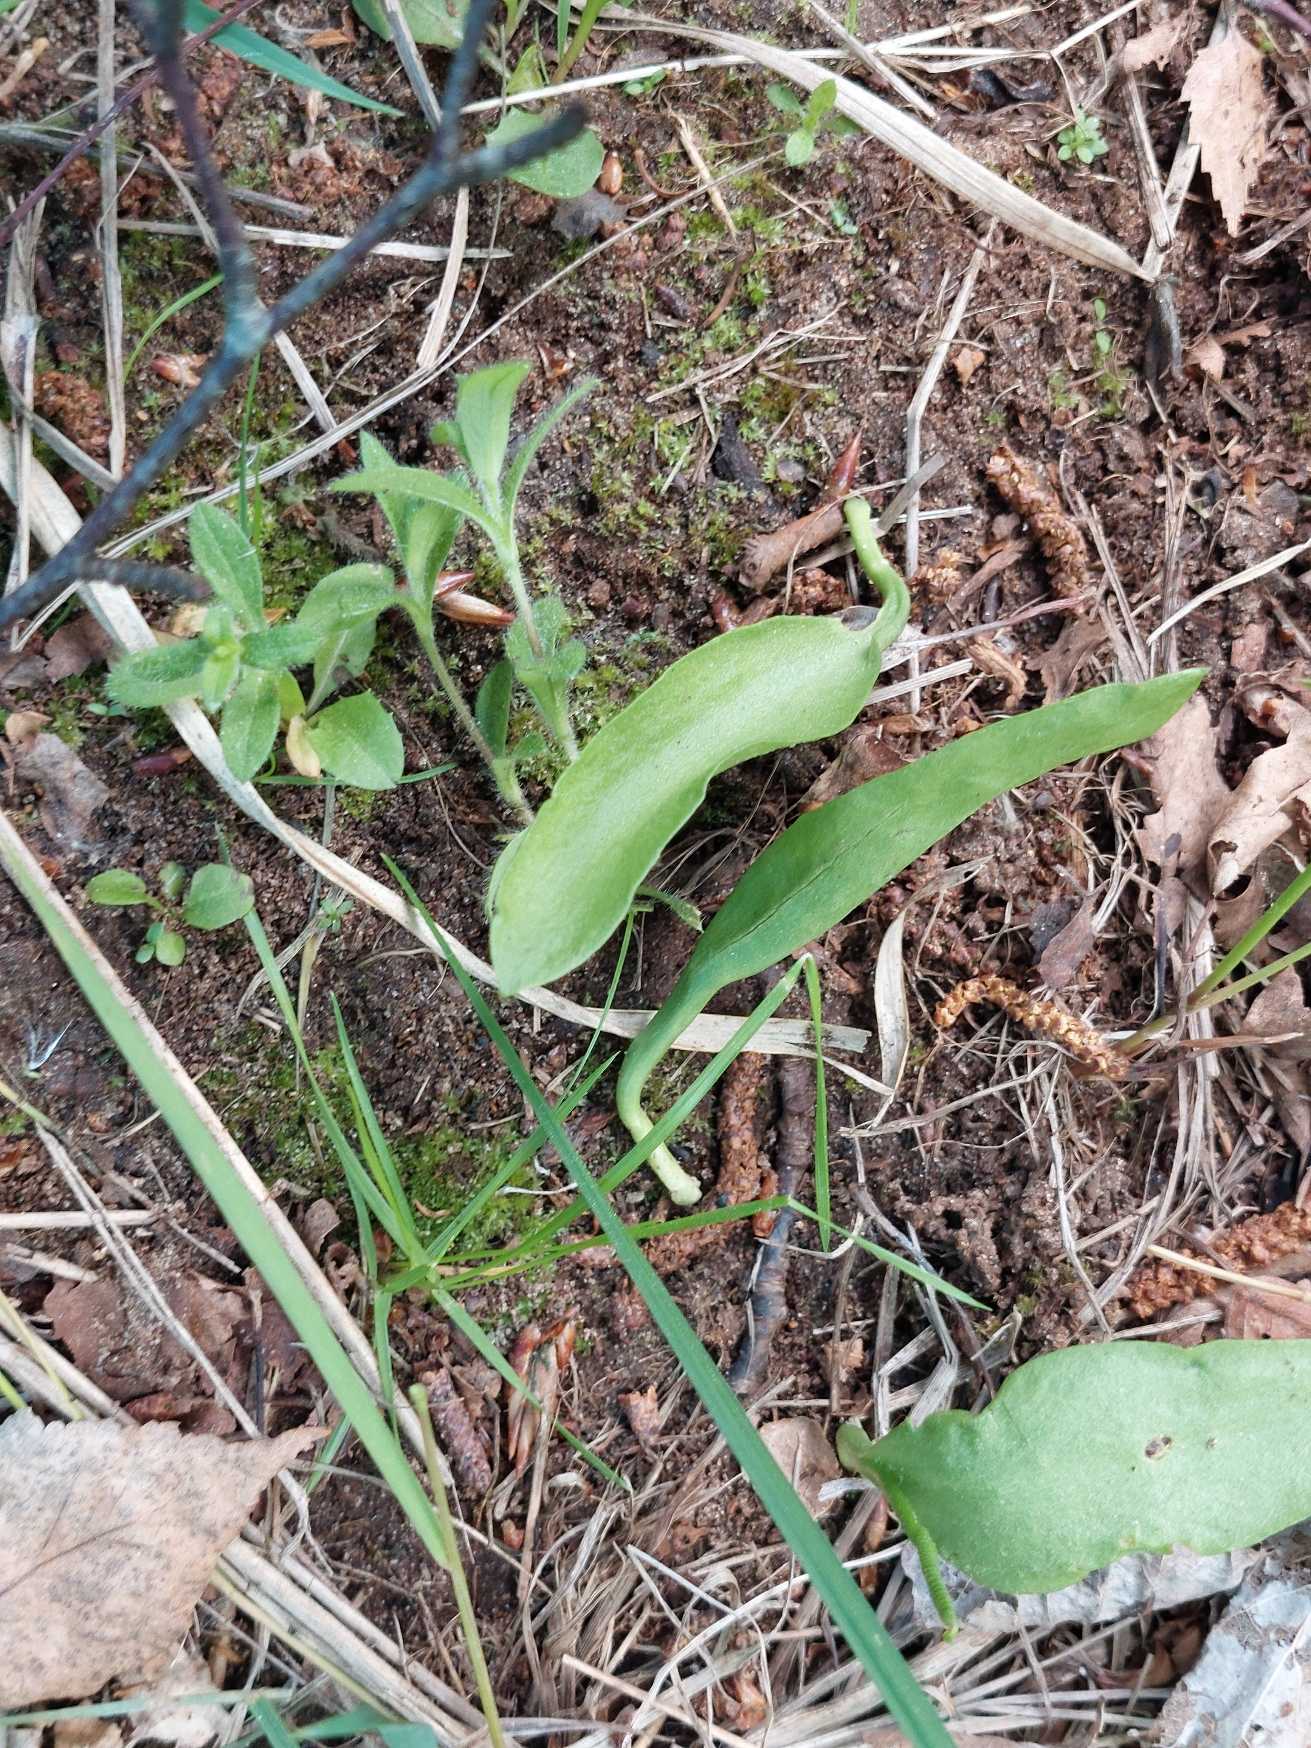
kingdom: Plantae
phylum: Tracheophyta
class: Polypodiopsida
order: Ophioglossales
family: Ophioglossaceae
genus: Ophioglossum
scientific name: Ophioglossum vulgatum
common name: Slangetunge
